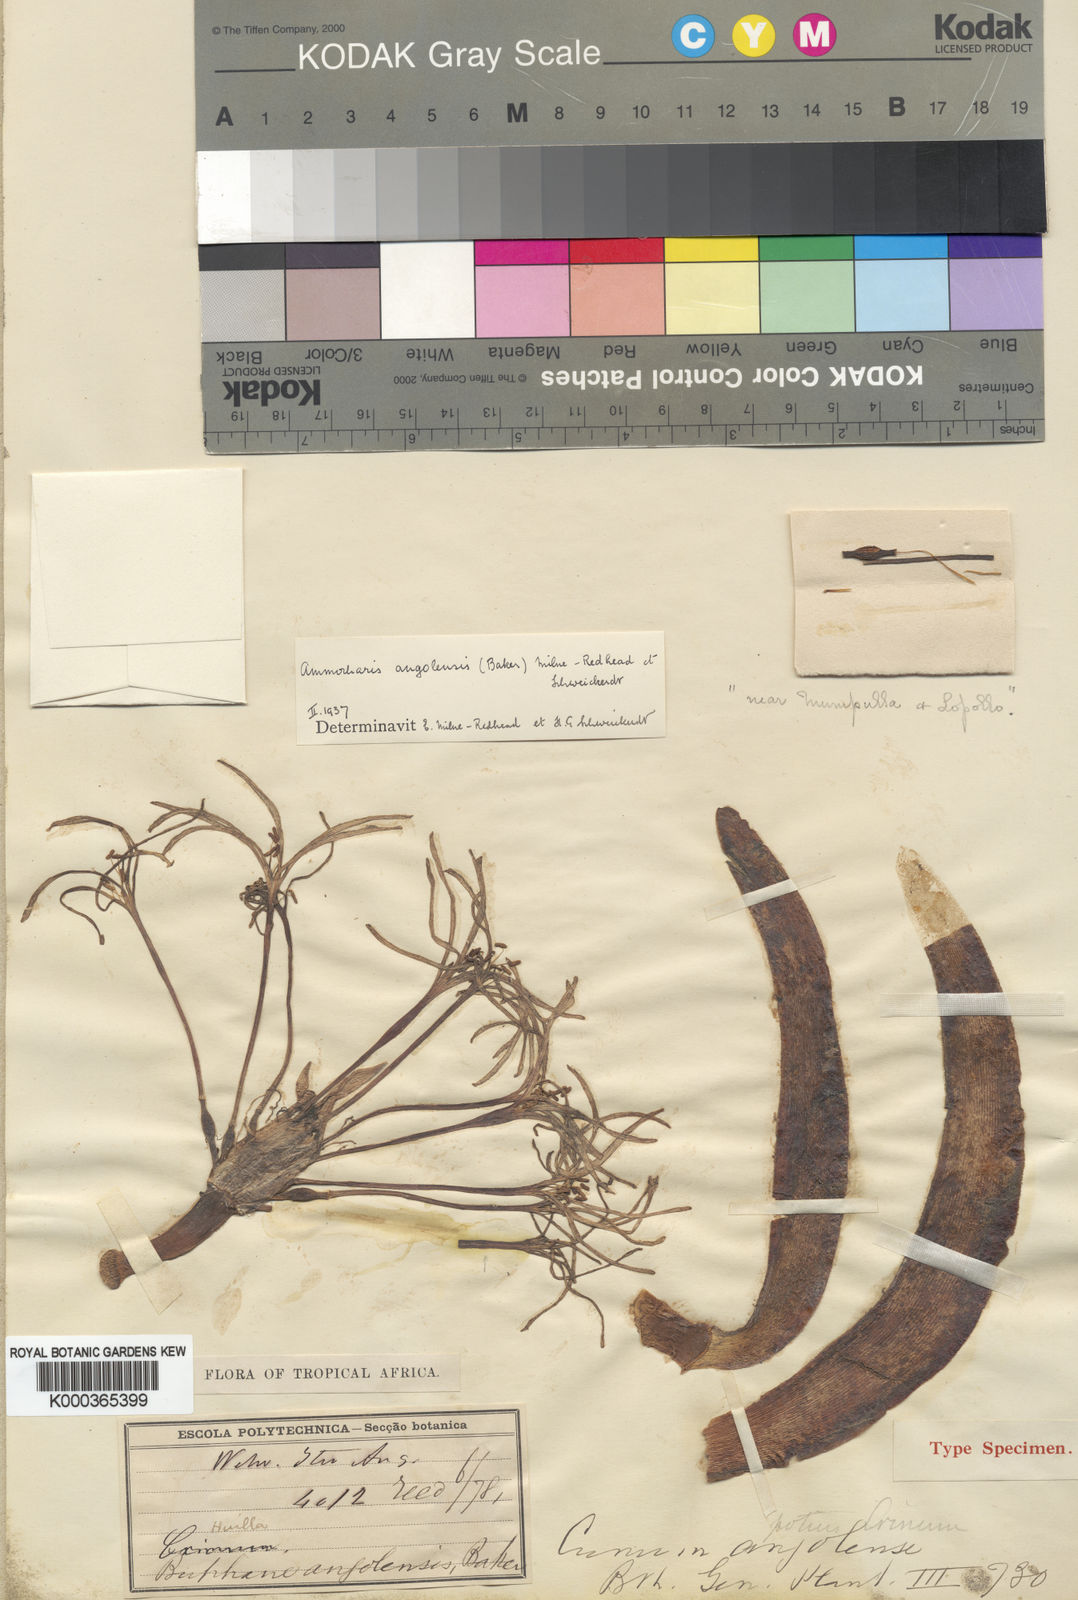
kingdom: Plantae
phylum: Tracheophyta
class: Liliopsida
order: Asparagales
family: Amaryllidaceae
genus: Ammocharis
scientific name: Ammocharis baumii
